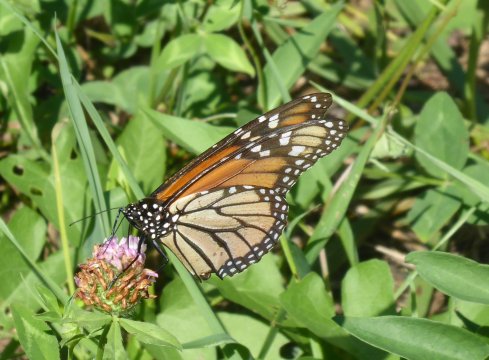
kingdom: Animalia
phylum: Arthropoda
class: Insecta
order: Lepidoptera
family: Nymphalidae
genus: Danaus
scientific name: Danaus plexippus
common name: Monarch
